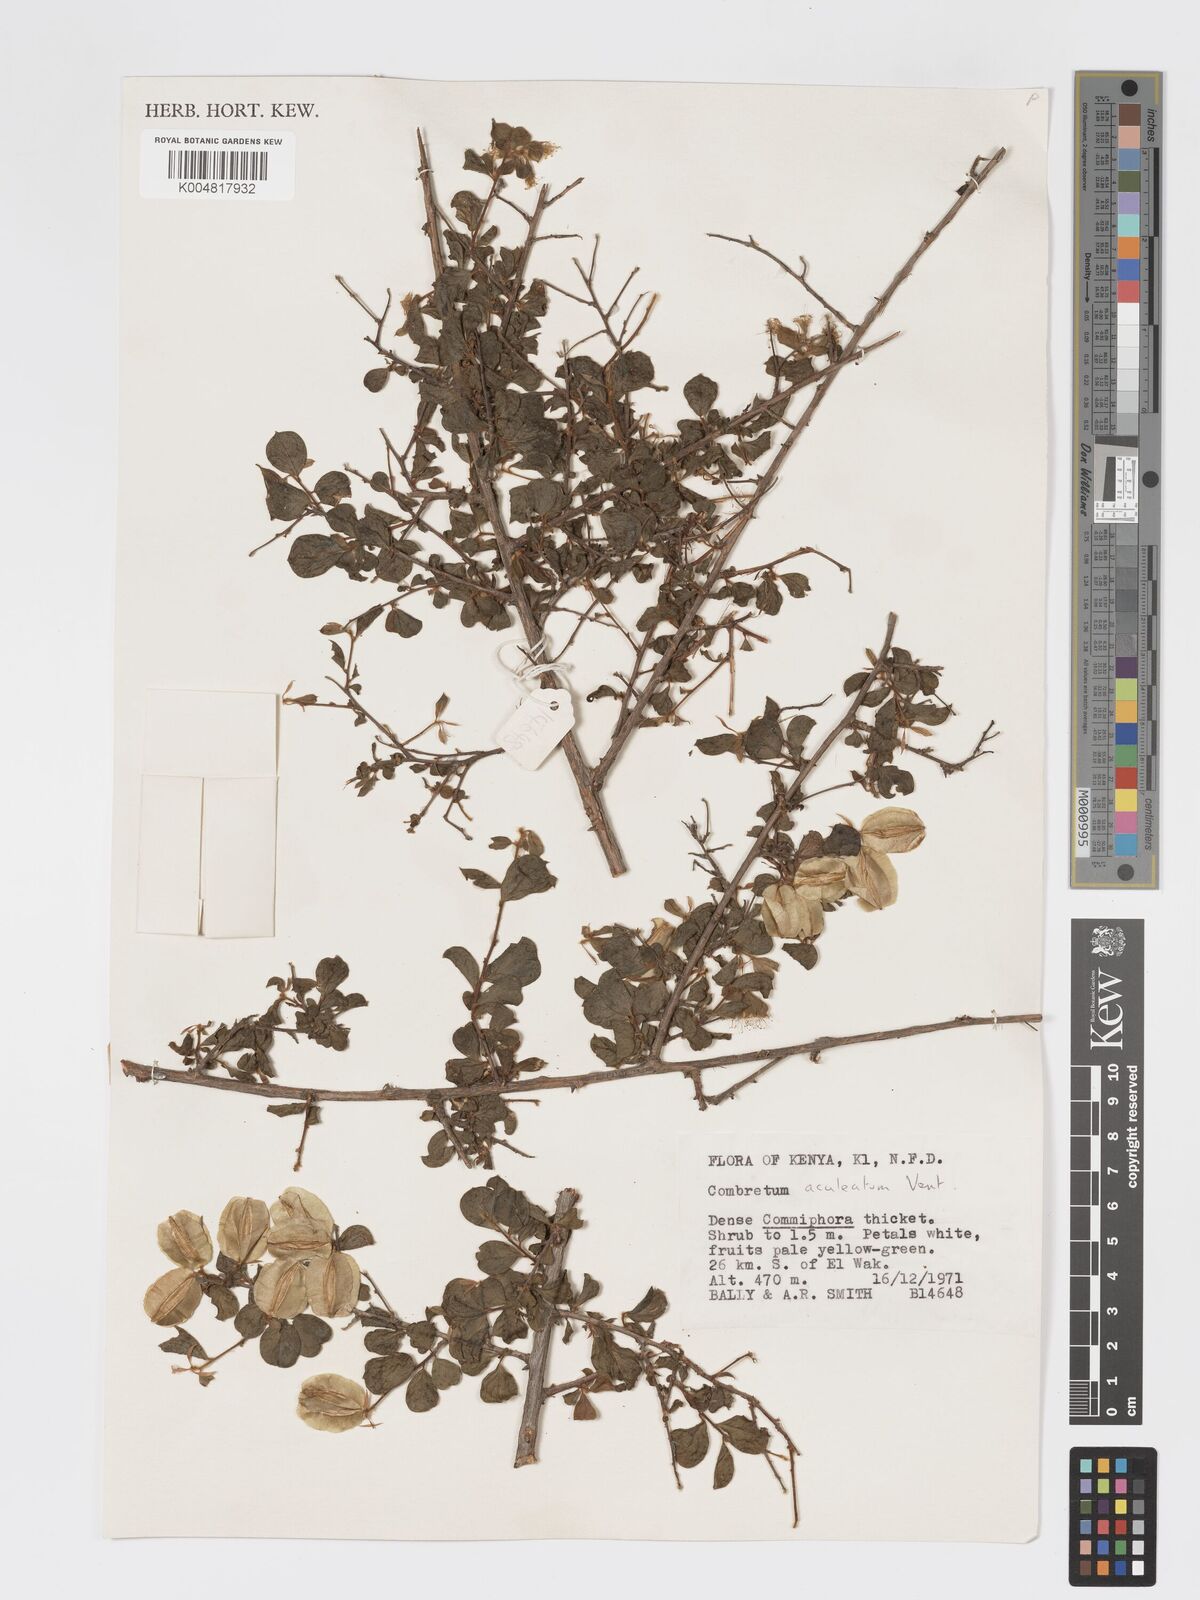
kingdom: Plantae
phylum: Tracheophyta
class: Magnoliopsida
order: Myrtales
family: Combretaceae
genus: Combretum
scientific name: Combretum aculeatum
